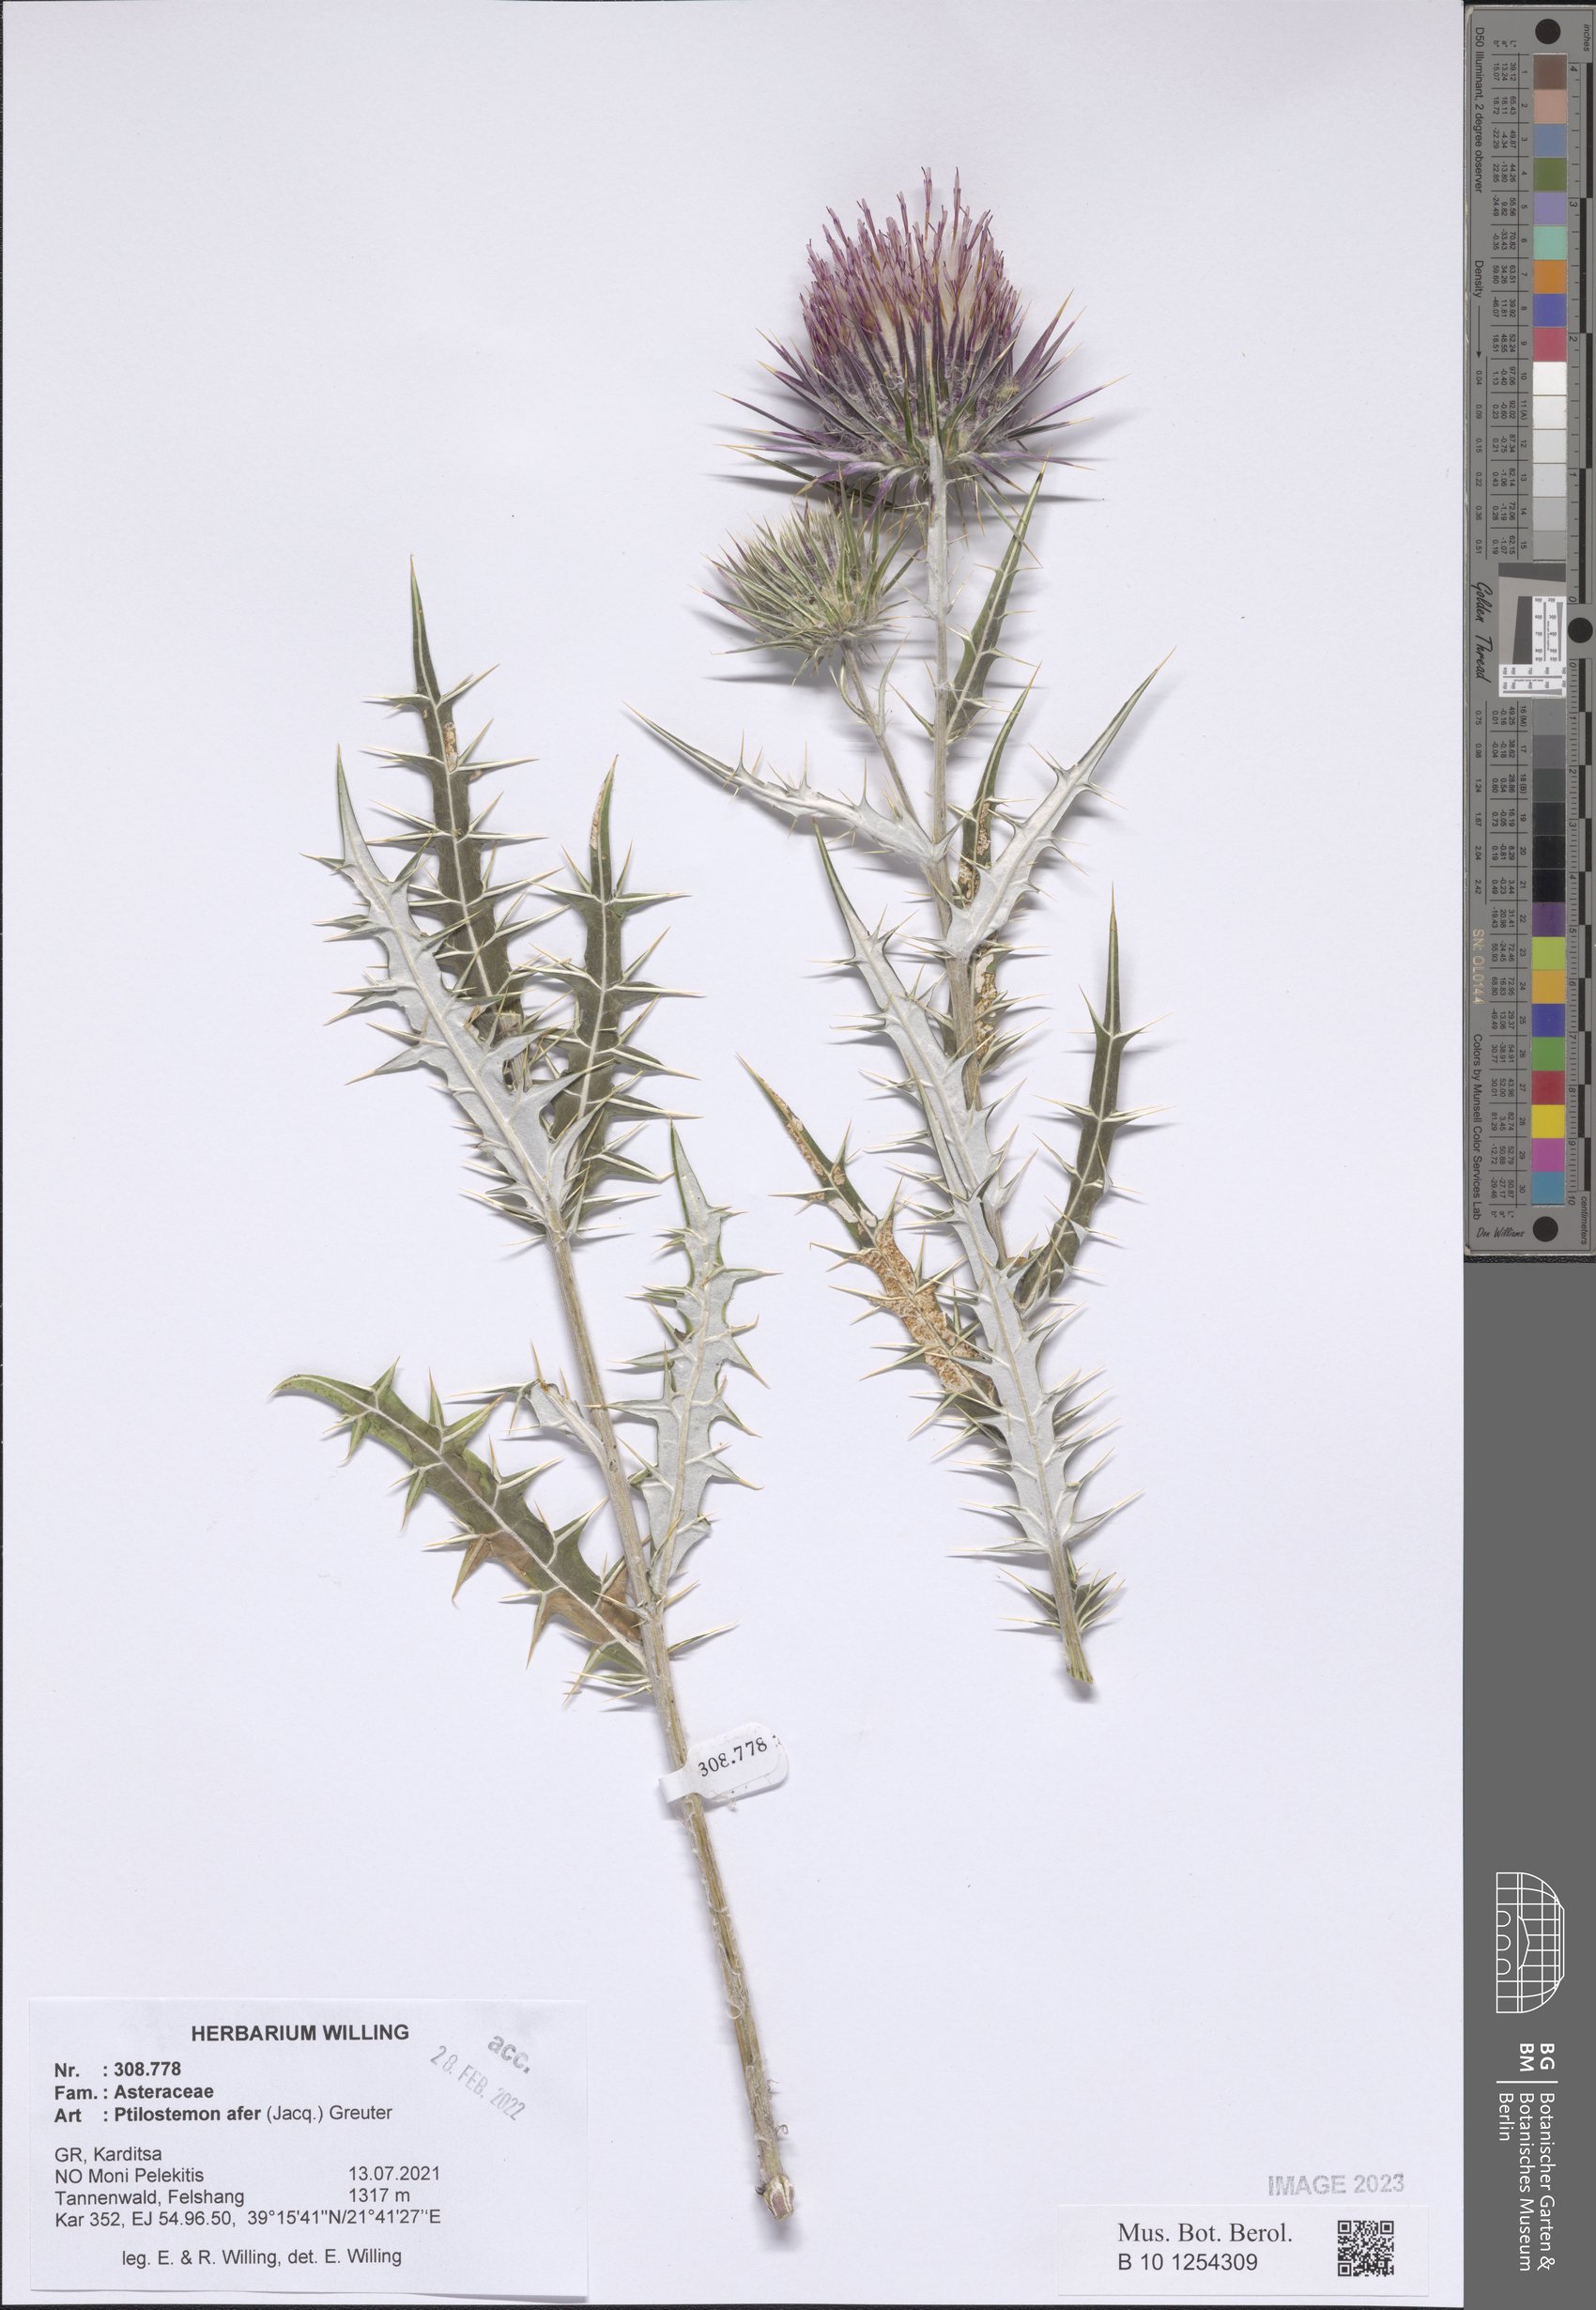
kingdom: Plantae
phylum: Tracheophyta
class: Magnoliopsida
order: Asterales
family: Asteraceae
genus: Ptilostemon
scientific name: Ptilostemon afer
